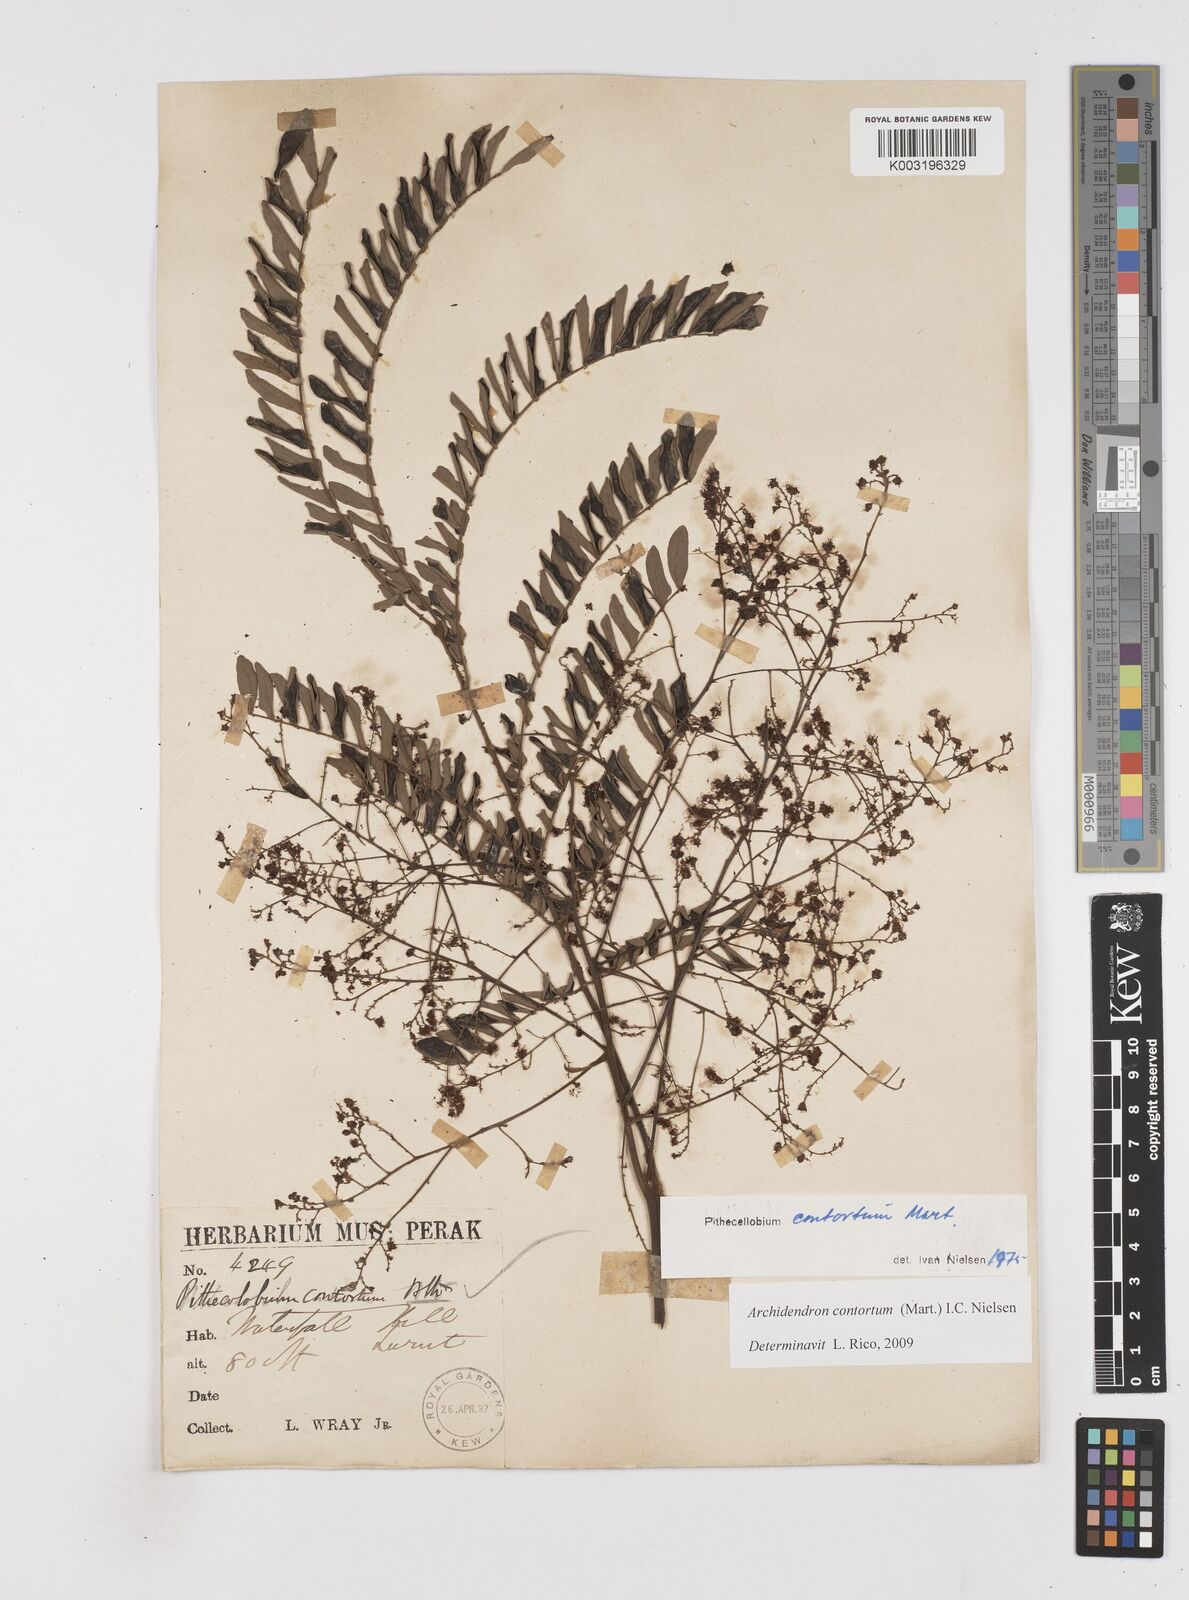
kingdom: Plantae
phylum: Tracheophyta
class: Magnoliopsida
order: Fabales
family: Fabaceae
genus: Archidendron
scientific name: Archidendron contortum
